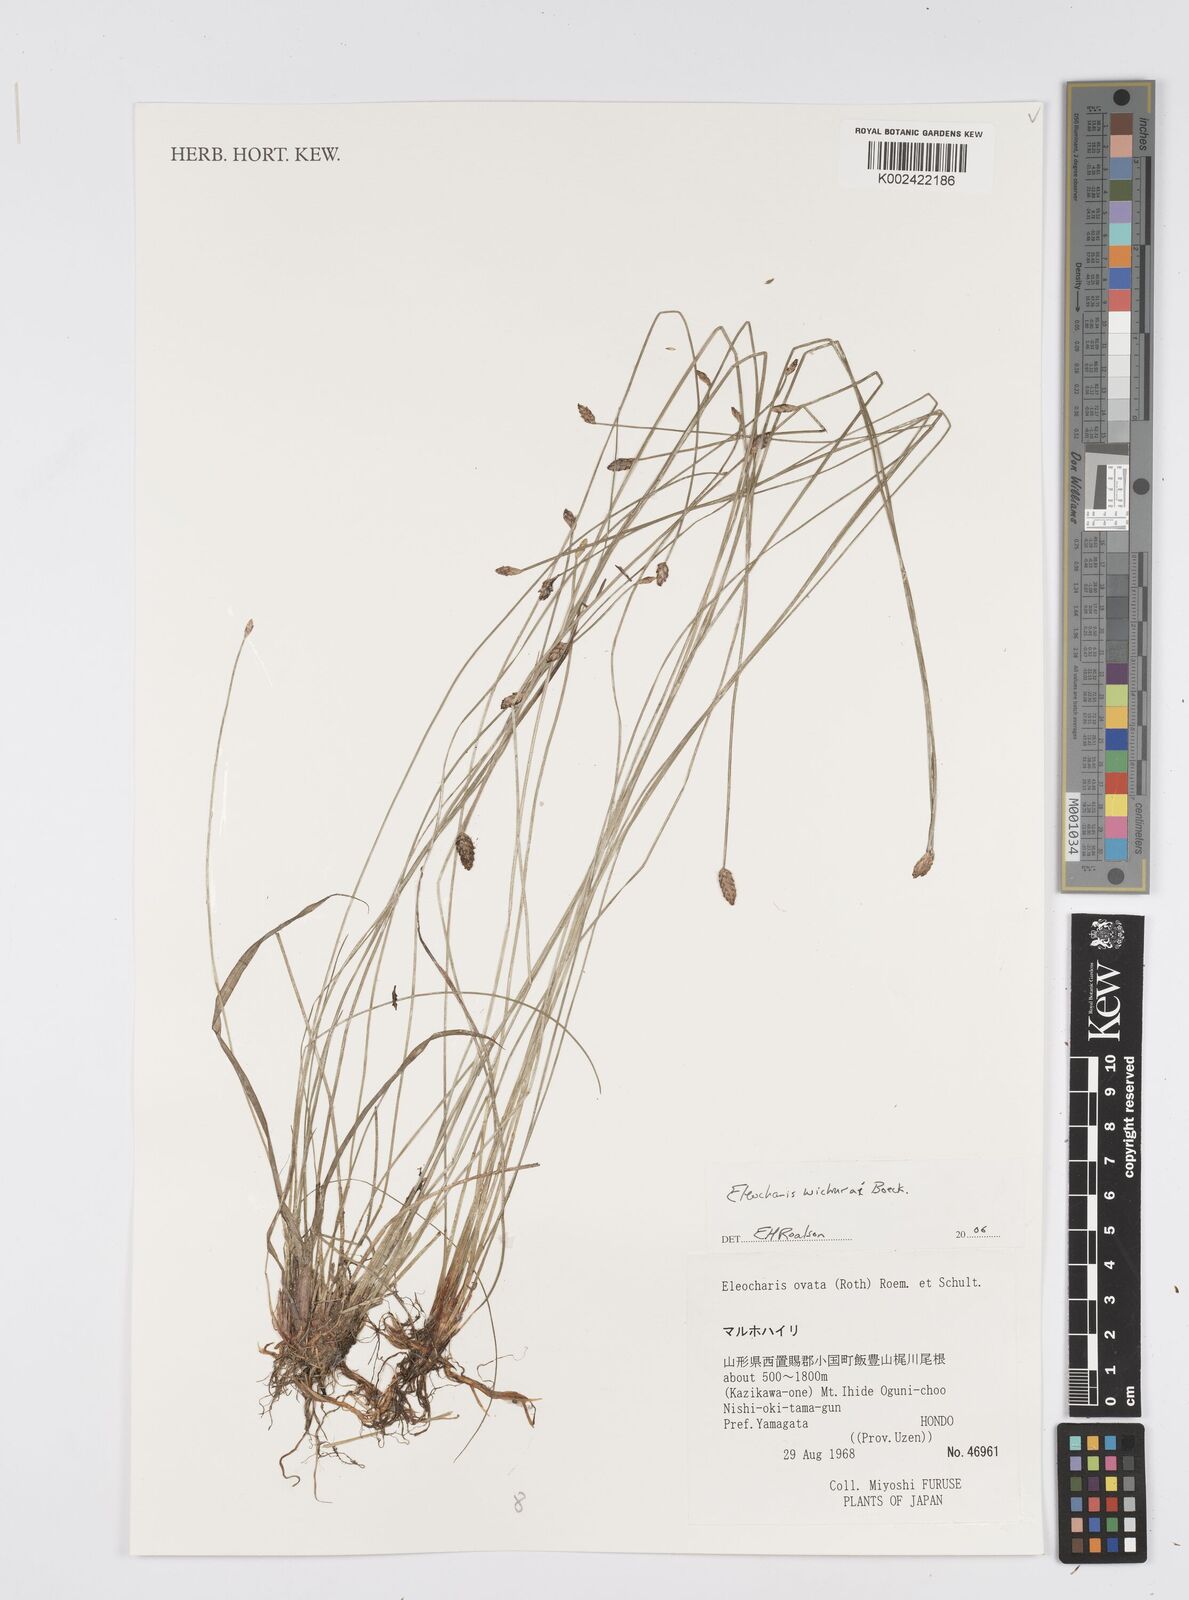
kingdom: Plantae
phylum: Tracheophyta
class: Liliopsida
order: Poales
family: Cyperaceae
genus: Eleocharis
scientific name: Eleocharis tetraquetra
